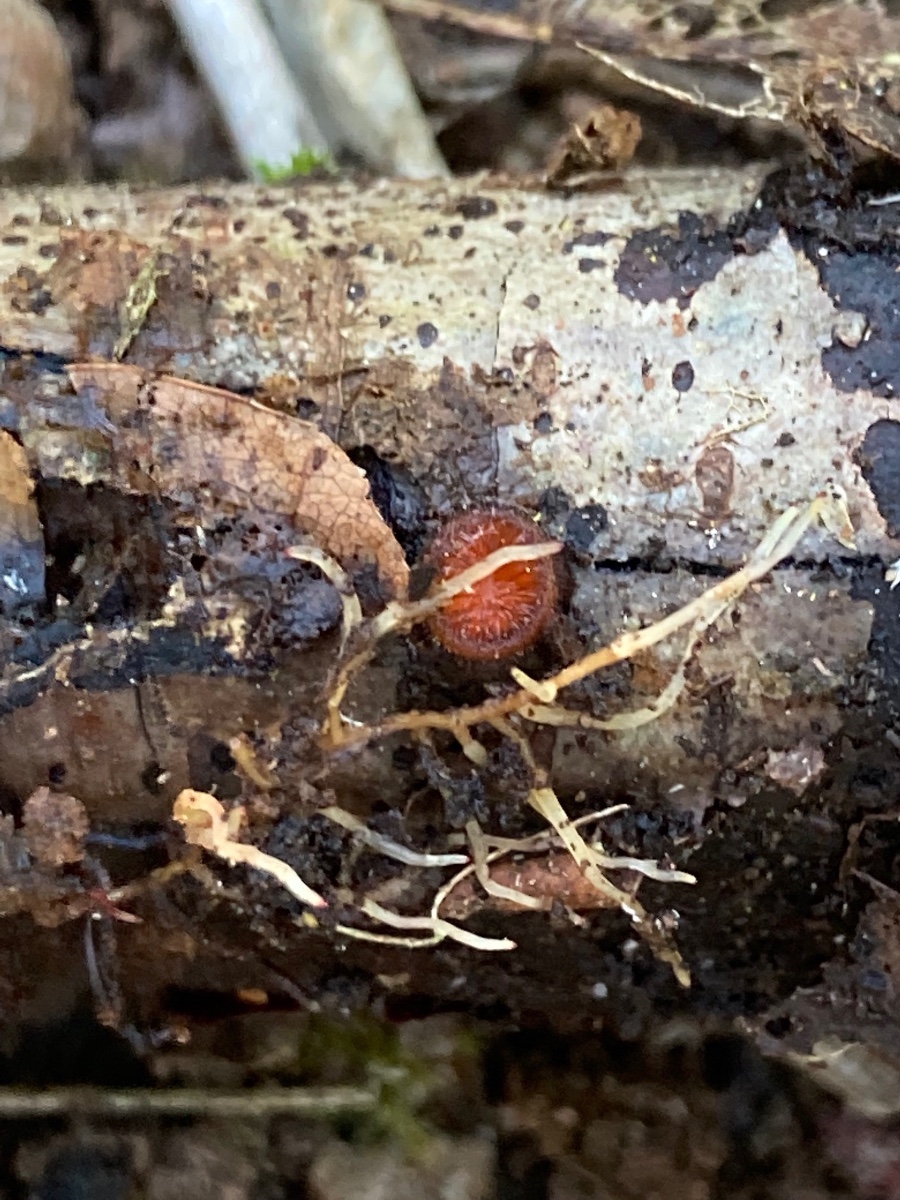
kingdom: Fungi
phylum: Ascomycota
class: Pezizomycetes
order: Pezizales
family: Pyronemataceae
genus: Scutellinia
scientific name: Scutellinia scutellata
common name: frynset skjoldbæger
